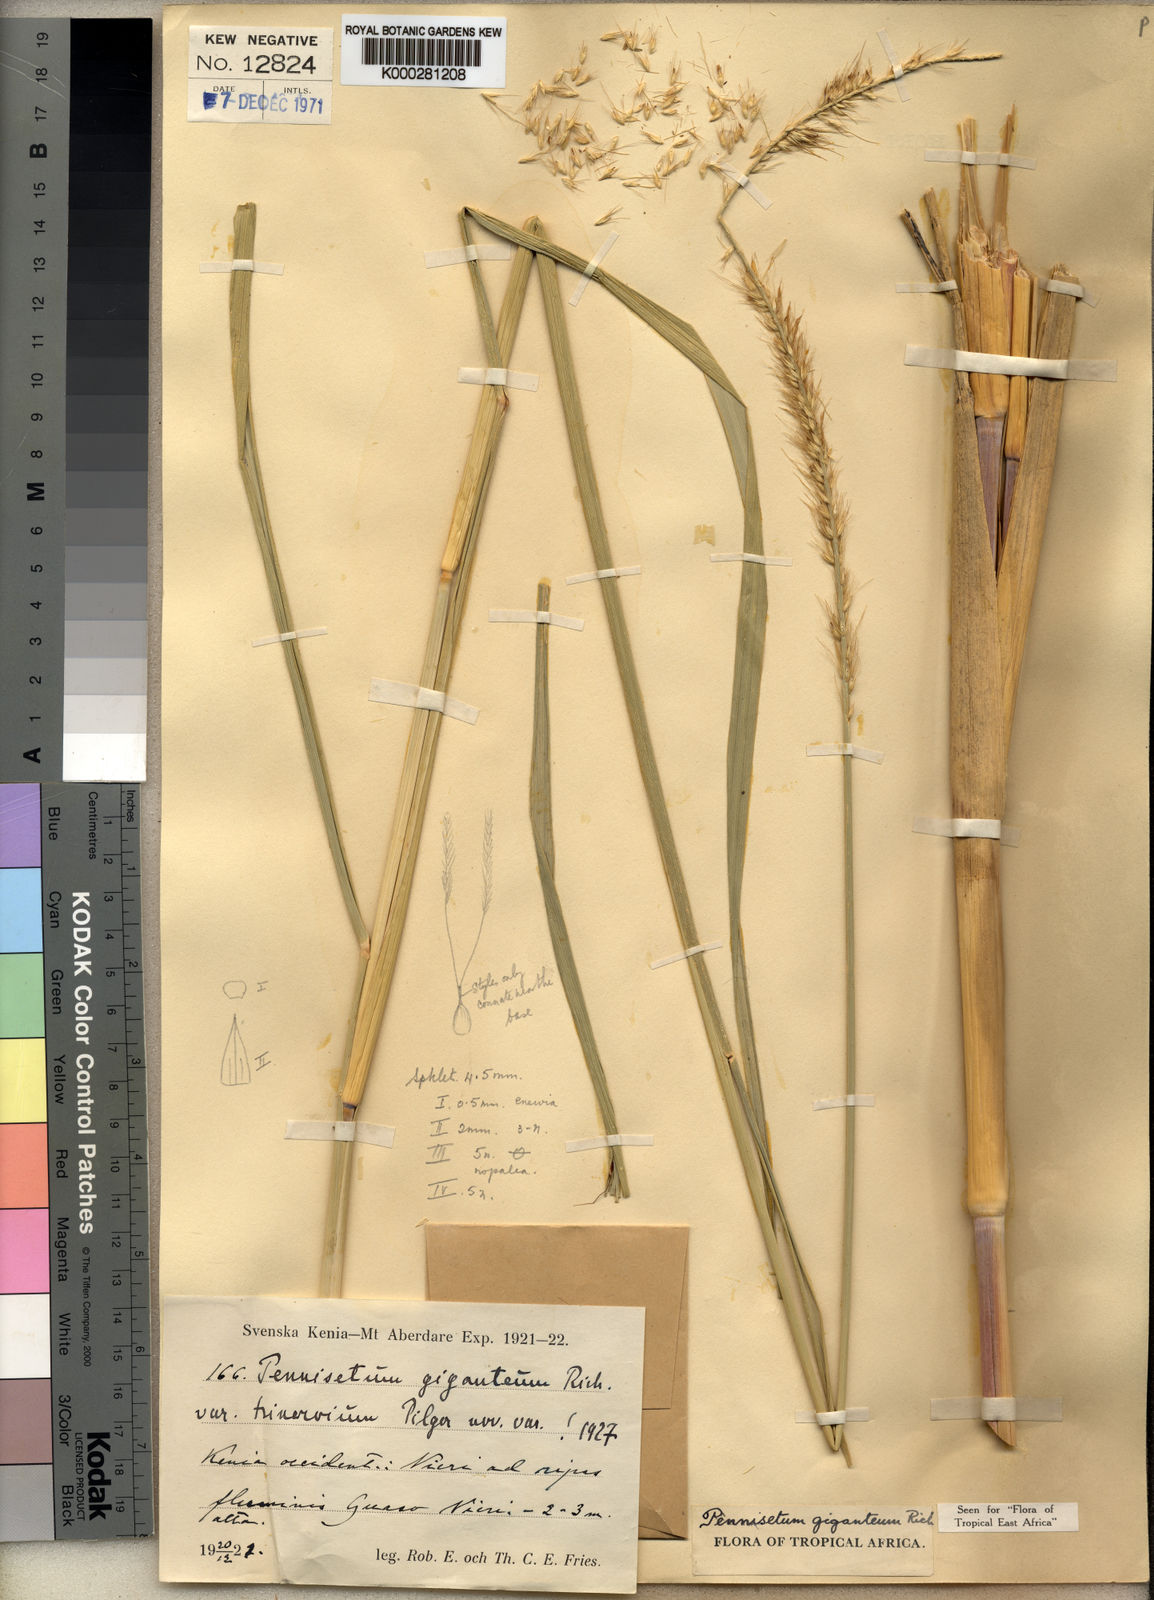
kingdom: Plantae
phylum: Tracheophyta
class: Liliopsida
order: Poales
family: Poaceae
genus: Cenchrus
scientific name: Cenchrus caudatus
